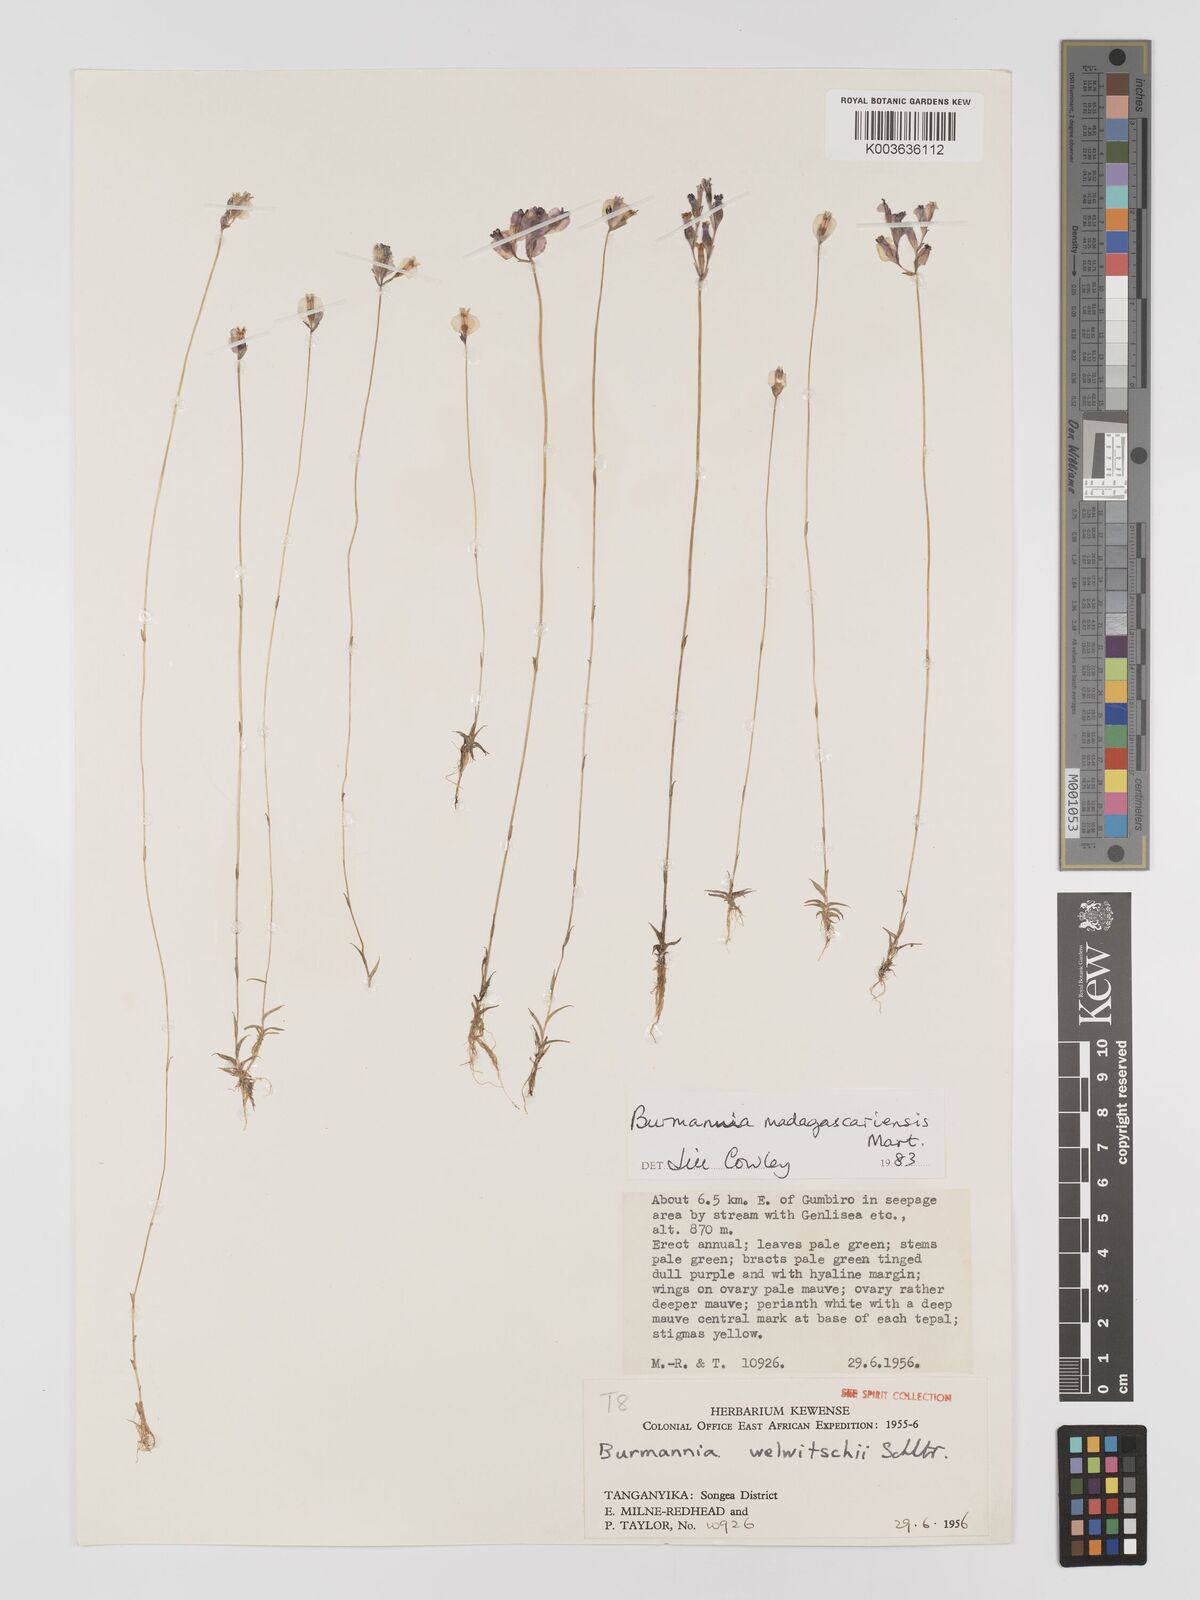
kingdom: Plantae
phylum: Tracheophyta
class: Liliopsida
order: Dioscoreales
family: Burmanniaceae
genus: Burmannia
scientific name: Burmannia madagascariensis
